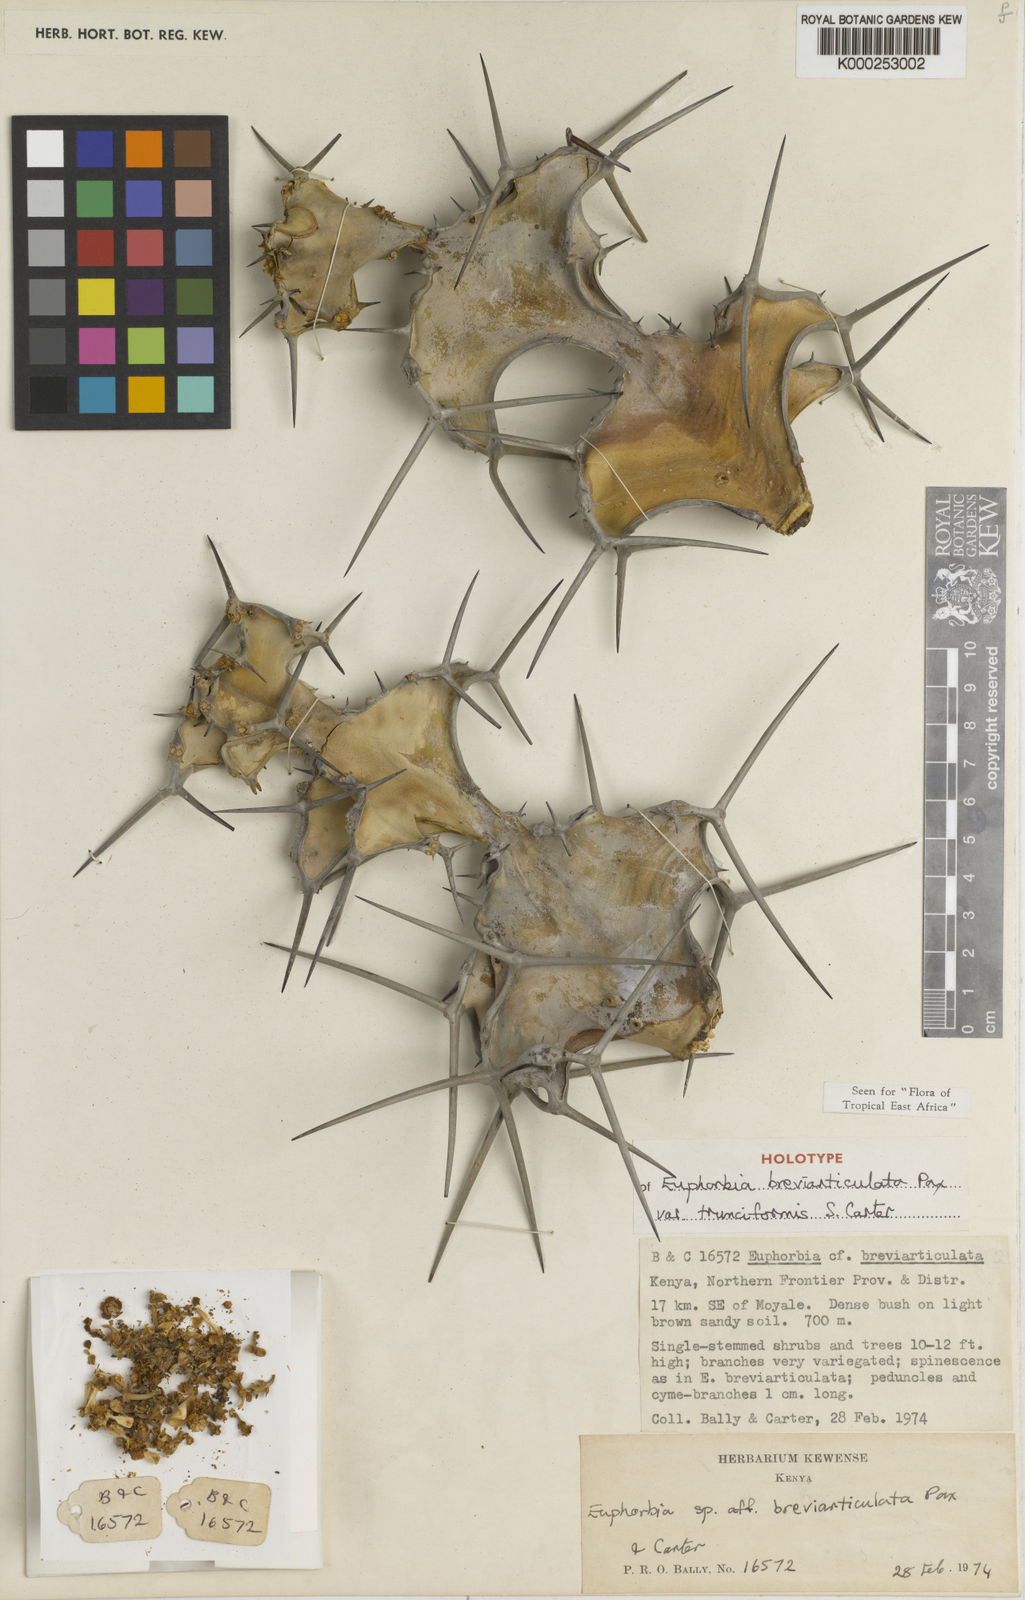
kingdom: Plantae
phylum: Tracheophyta
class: Magnoliopsida
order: Malpighiales
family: Euphorbiaceae
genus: Euphorbia
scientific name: Euphorbia breviarticulata
